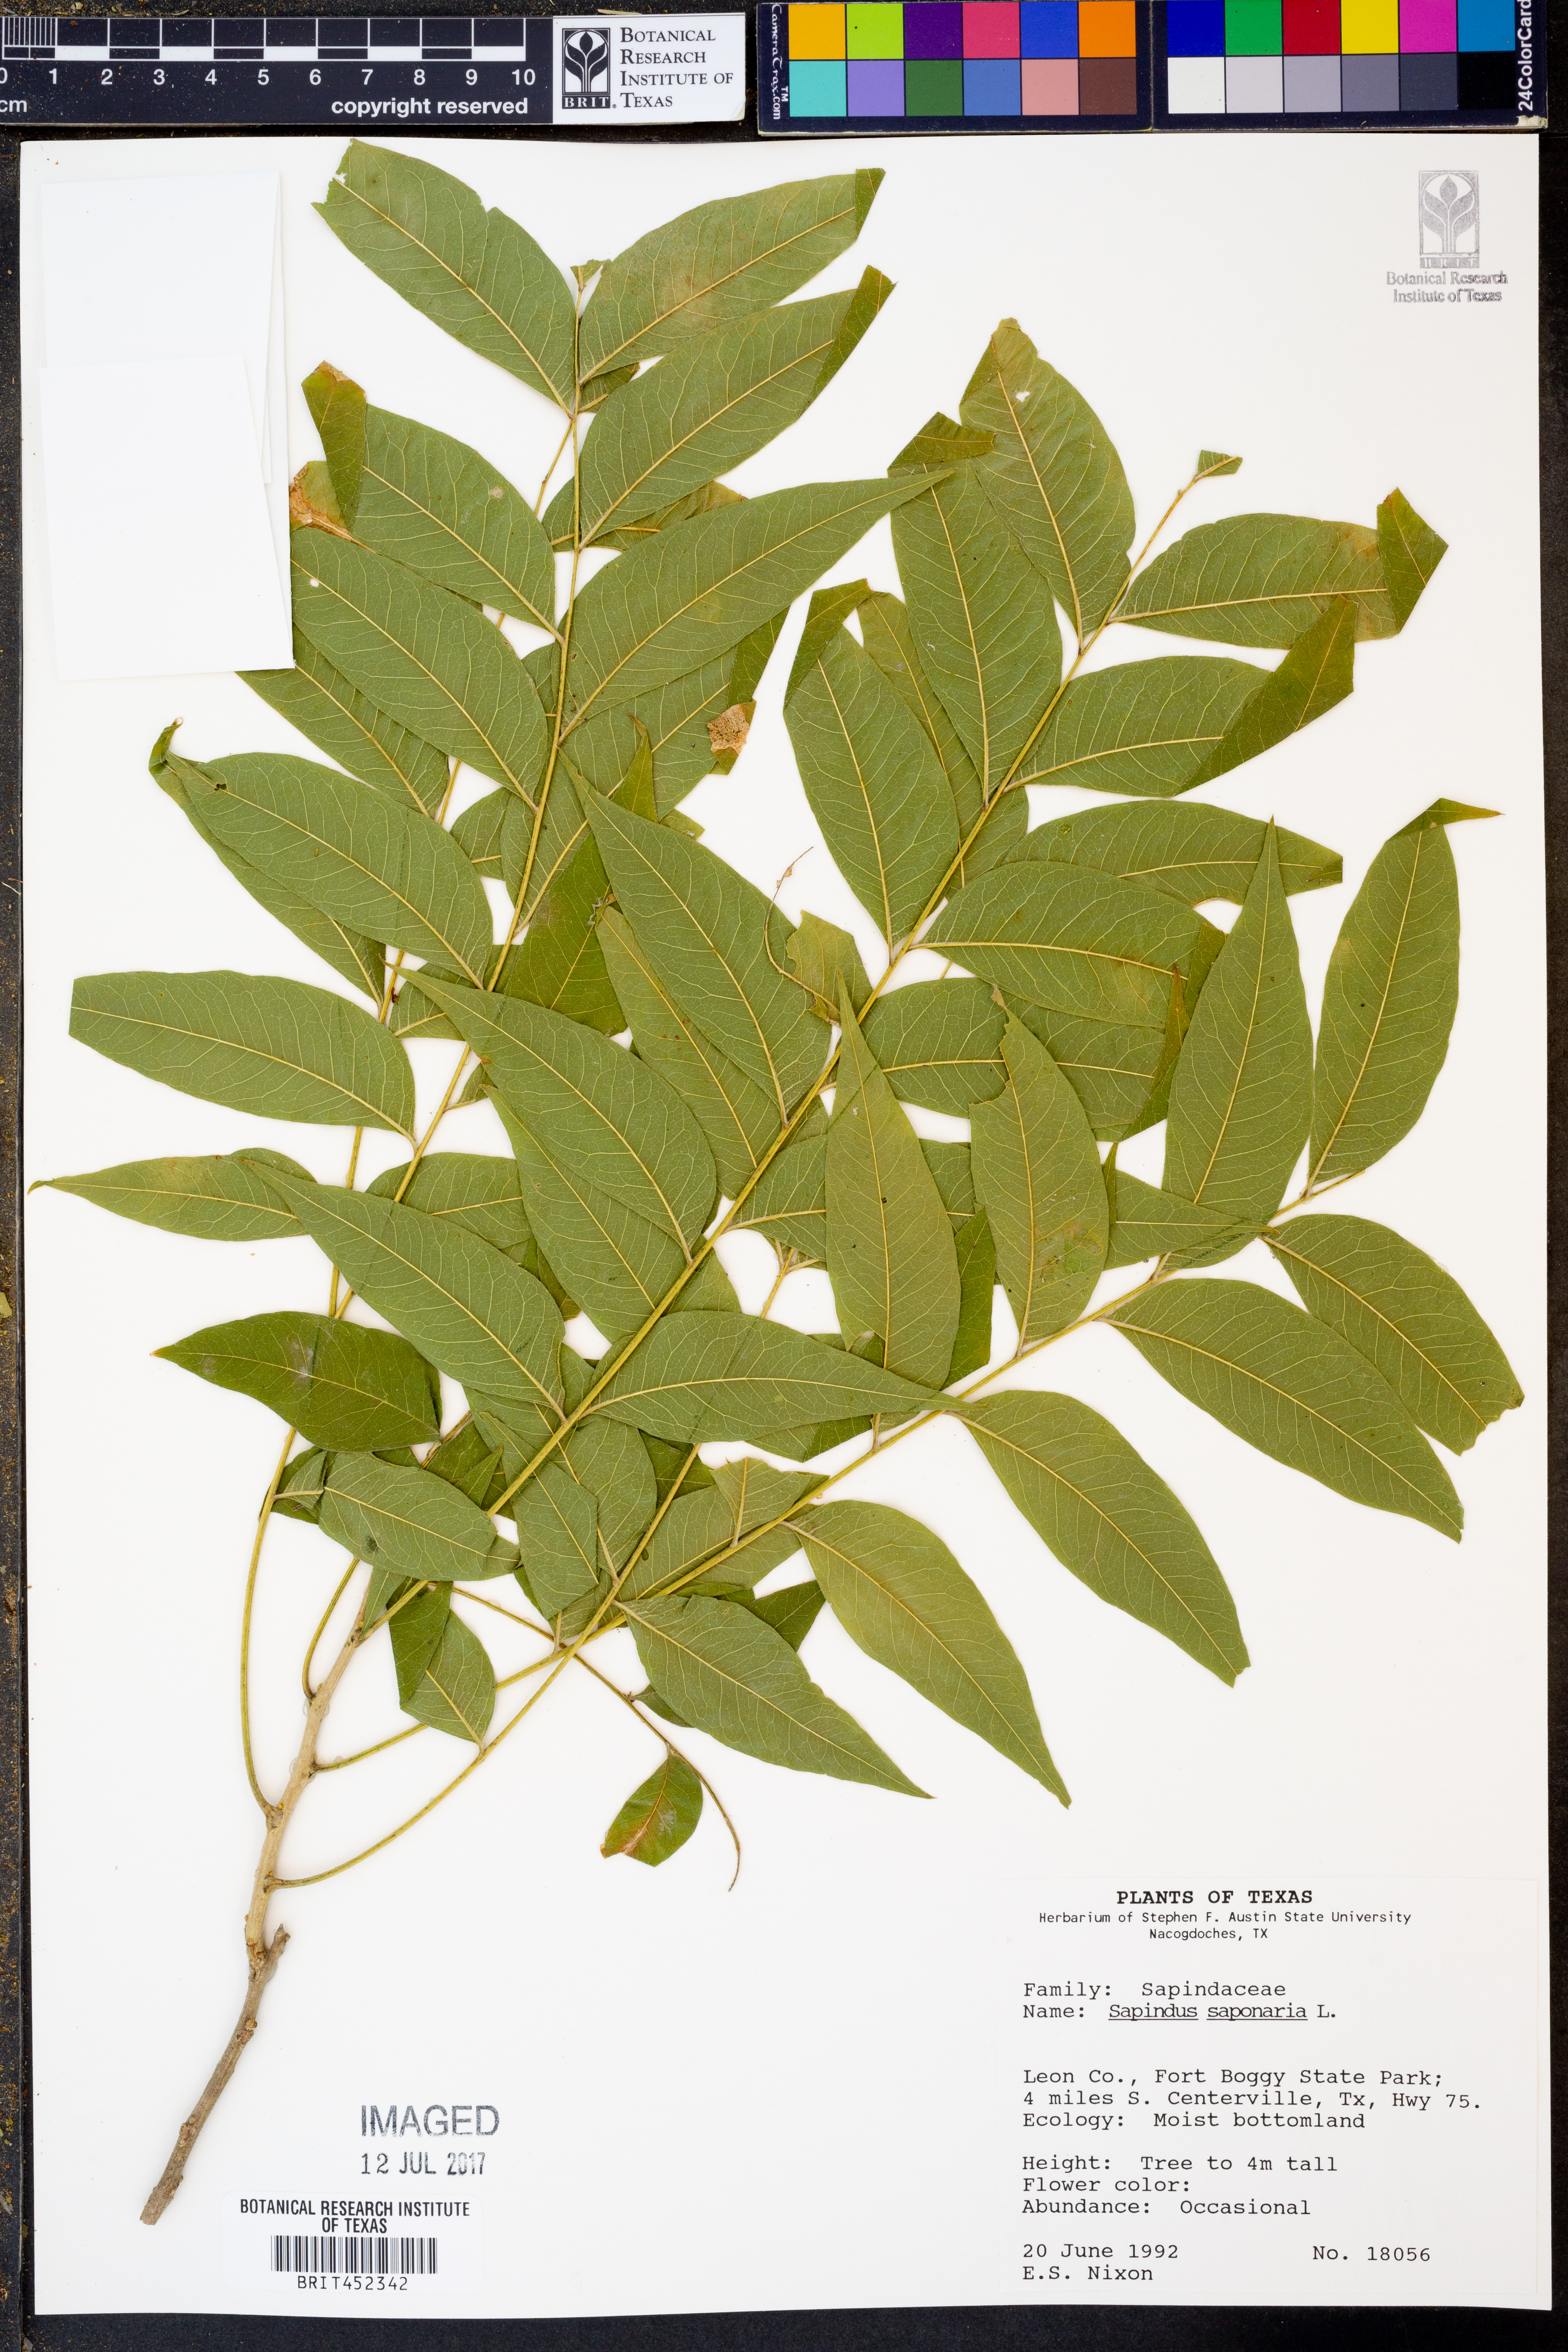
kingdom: Plantae
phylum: Tracheophyta
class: Magnoliopsida
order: Sapindales
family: Sapindaceae
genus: Sapindus
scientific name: Sapindus saponaria
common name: Wingleaf soapberry
